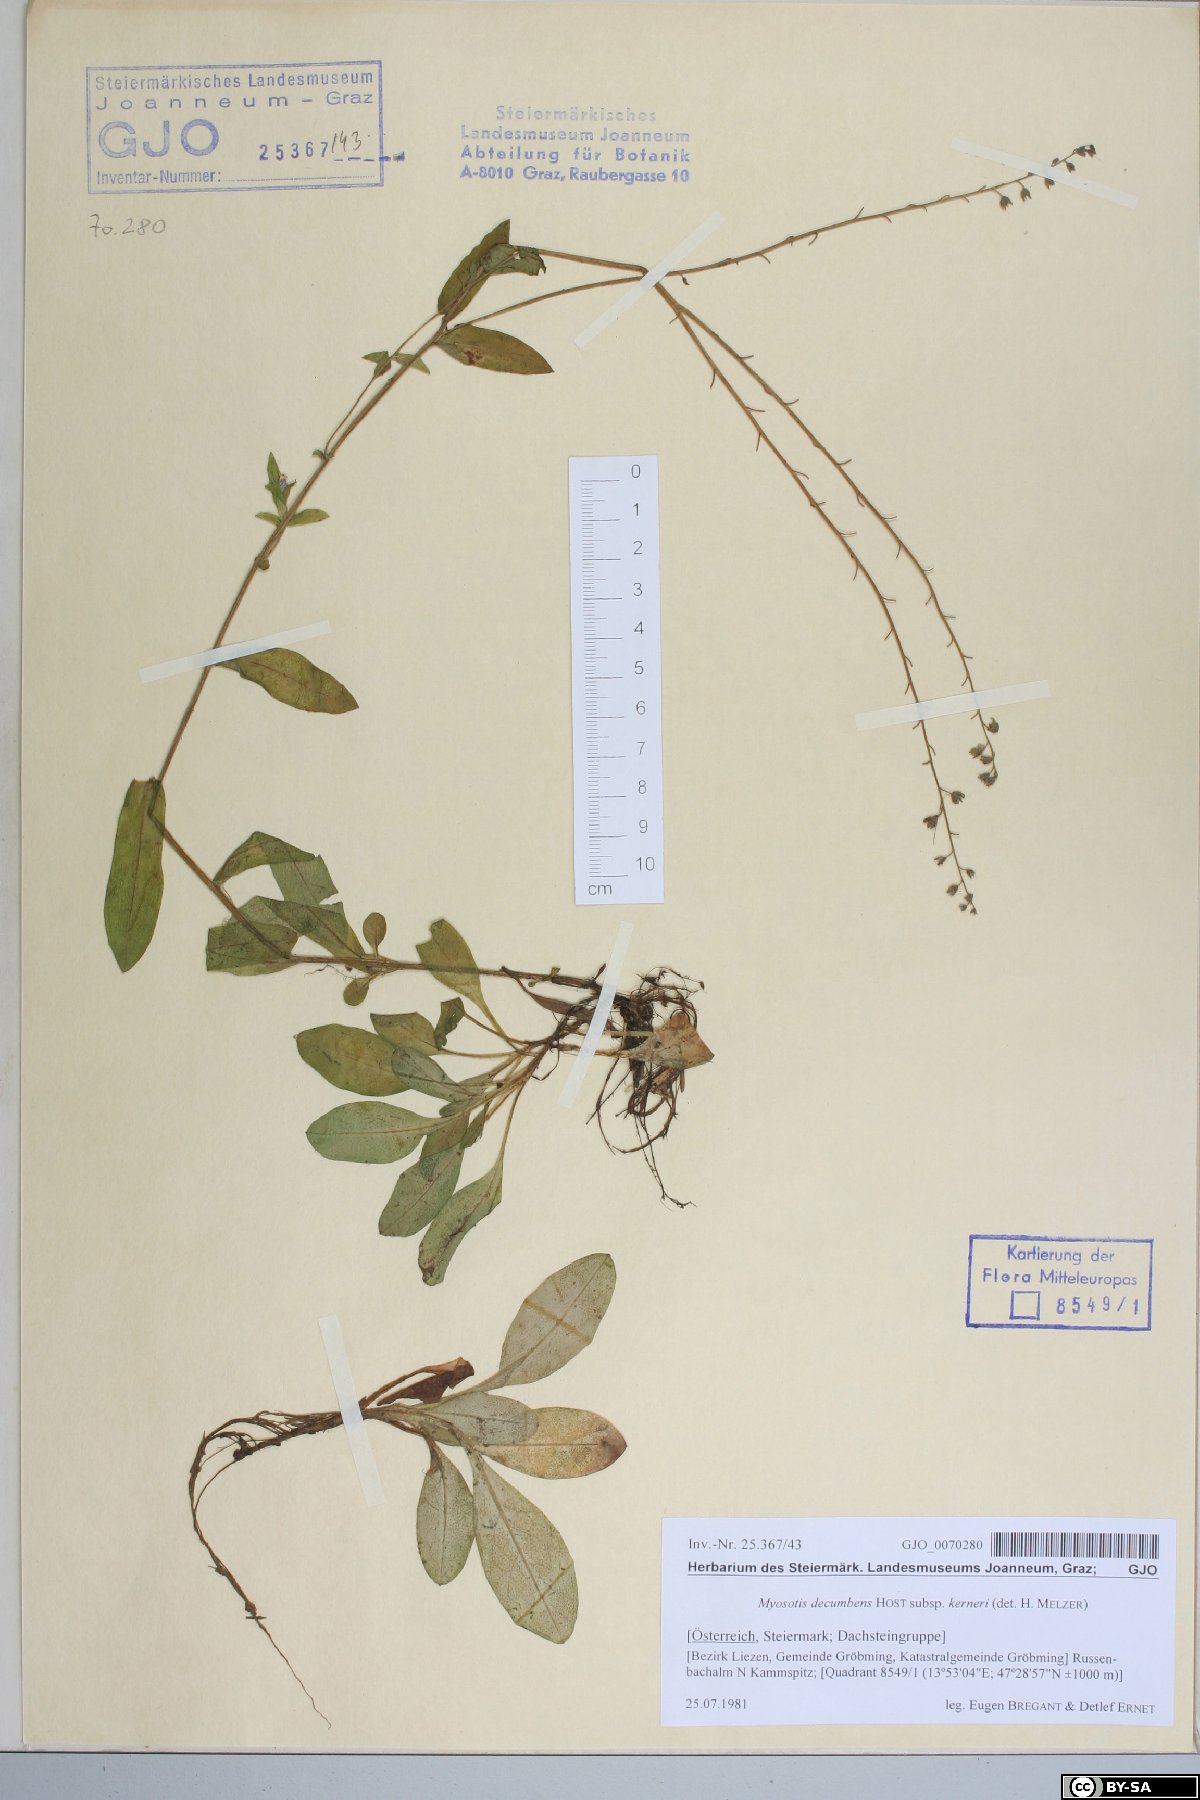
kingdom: Plantae
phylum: Tracheophyta
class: Magnoliopsida
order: Boraginales
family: Boraginaceae
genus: Myosotis
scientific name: Myosotis decumbens
